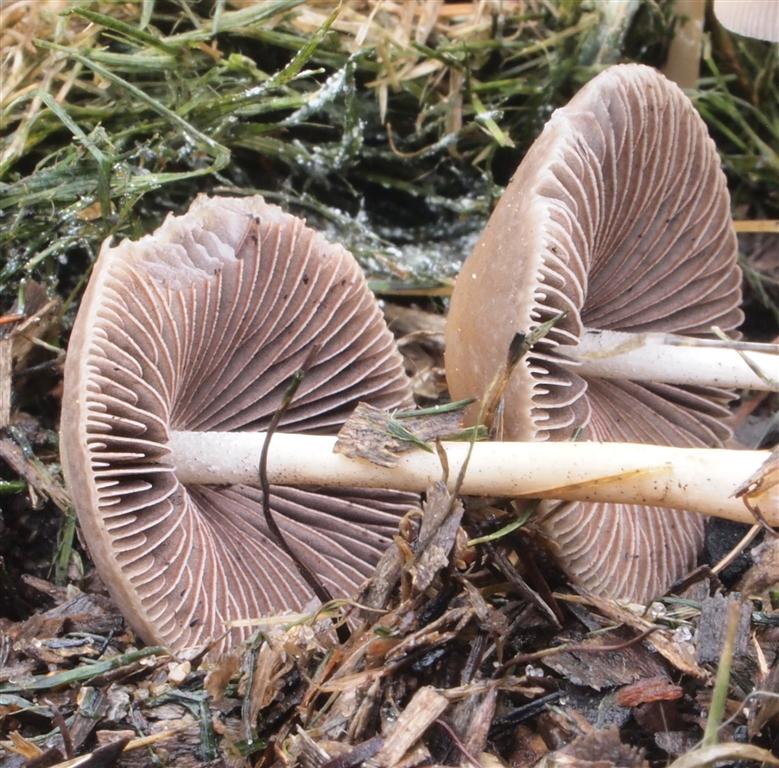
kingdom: Fungi
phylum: Basidiomycota
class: Agaricomycetes
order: Agaricales
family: Psathyrellaceae
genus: Psathyrella
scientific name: Psathyrella pseudogracilis
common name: slank mørkhat
